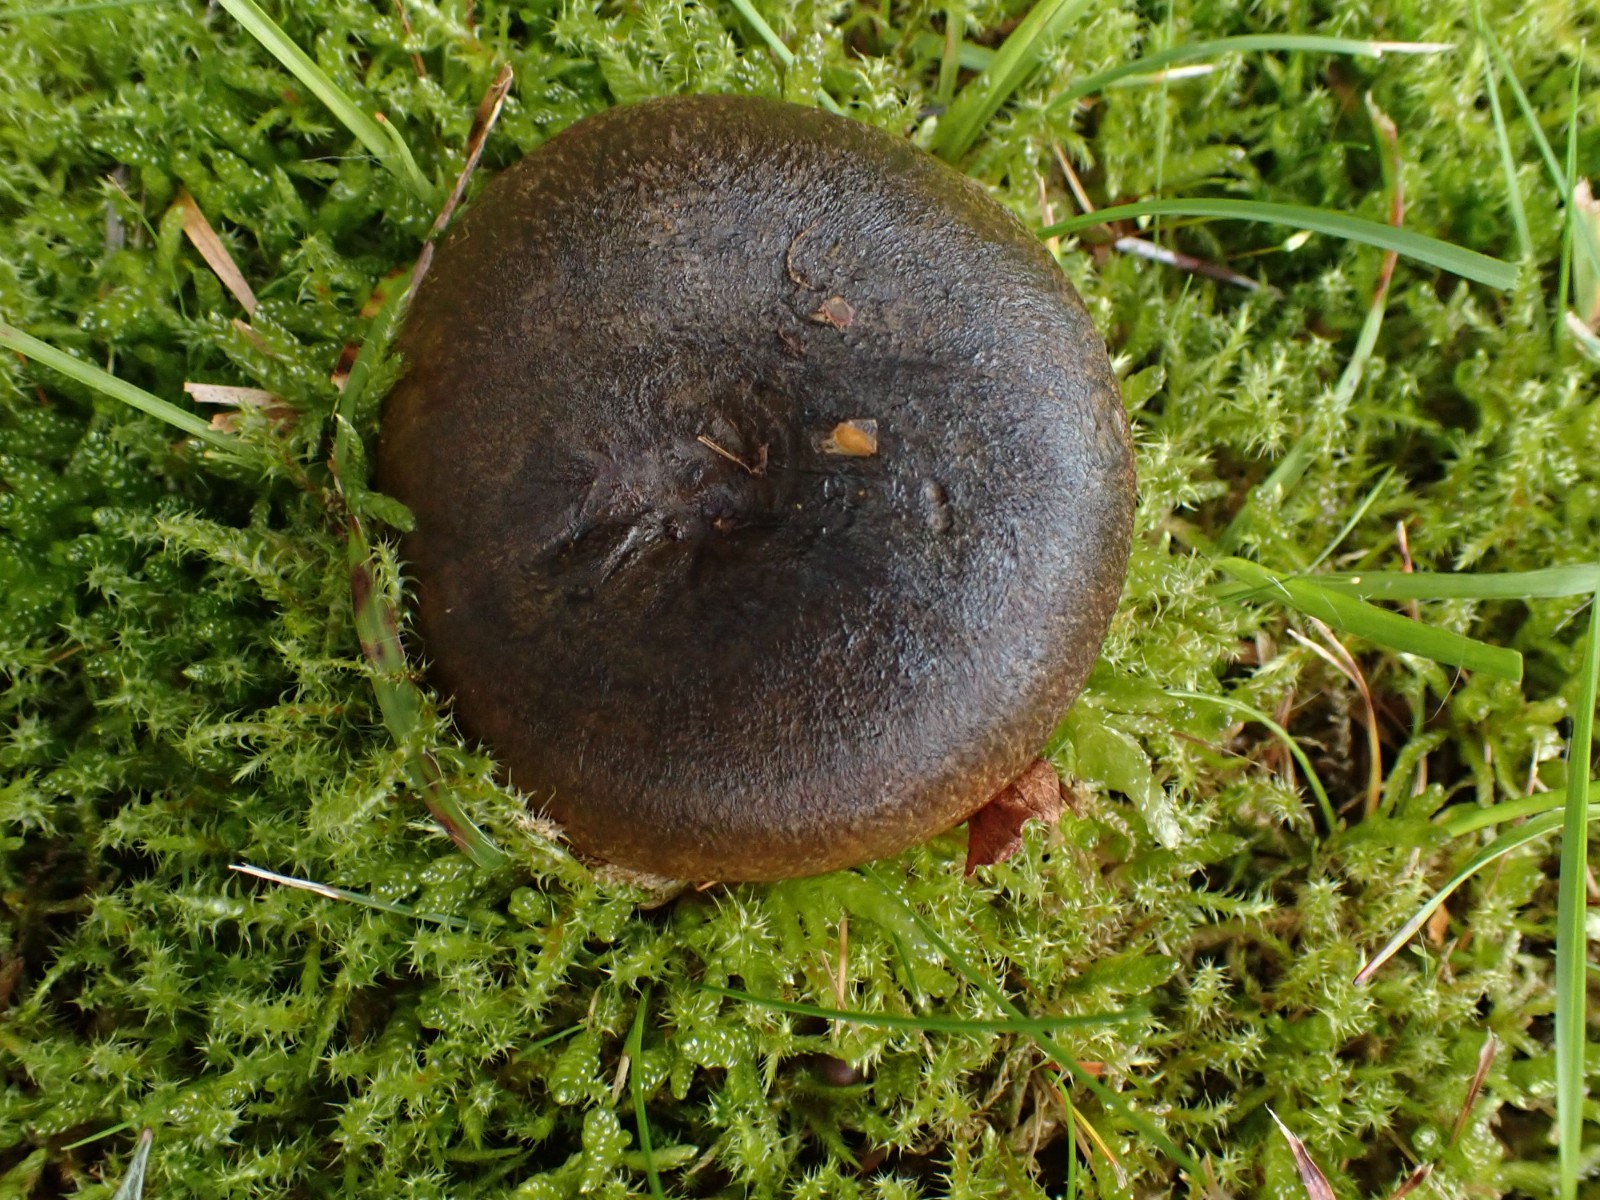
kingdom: Fungi
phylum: Basidiomycota
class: Agaricomycetes
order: Russulales
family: Russulaceae
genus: Lactarius
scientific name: Lactarius necator
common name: manddraber-mælkehat
